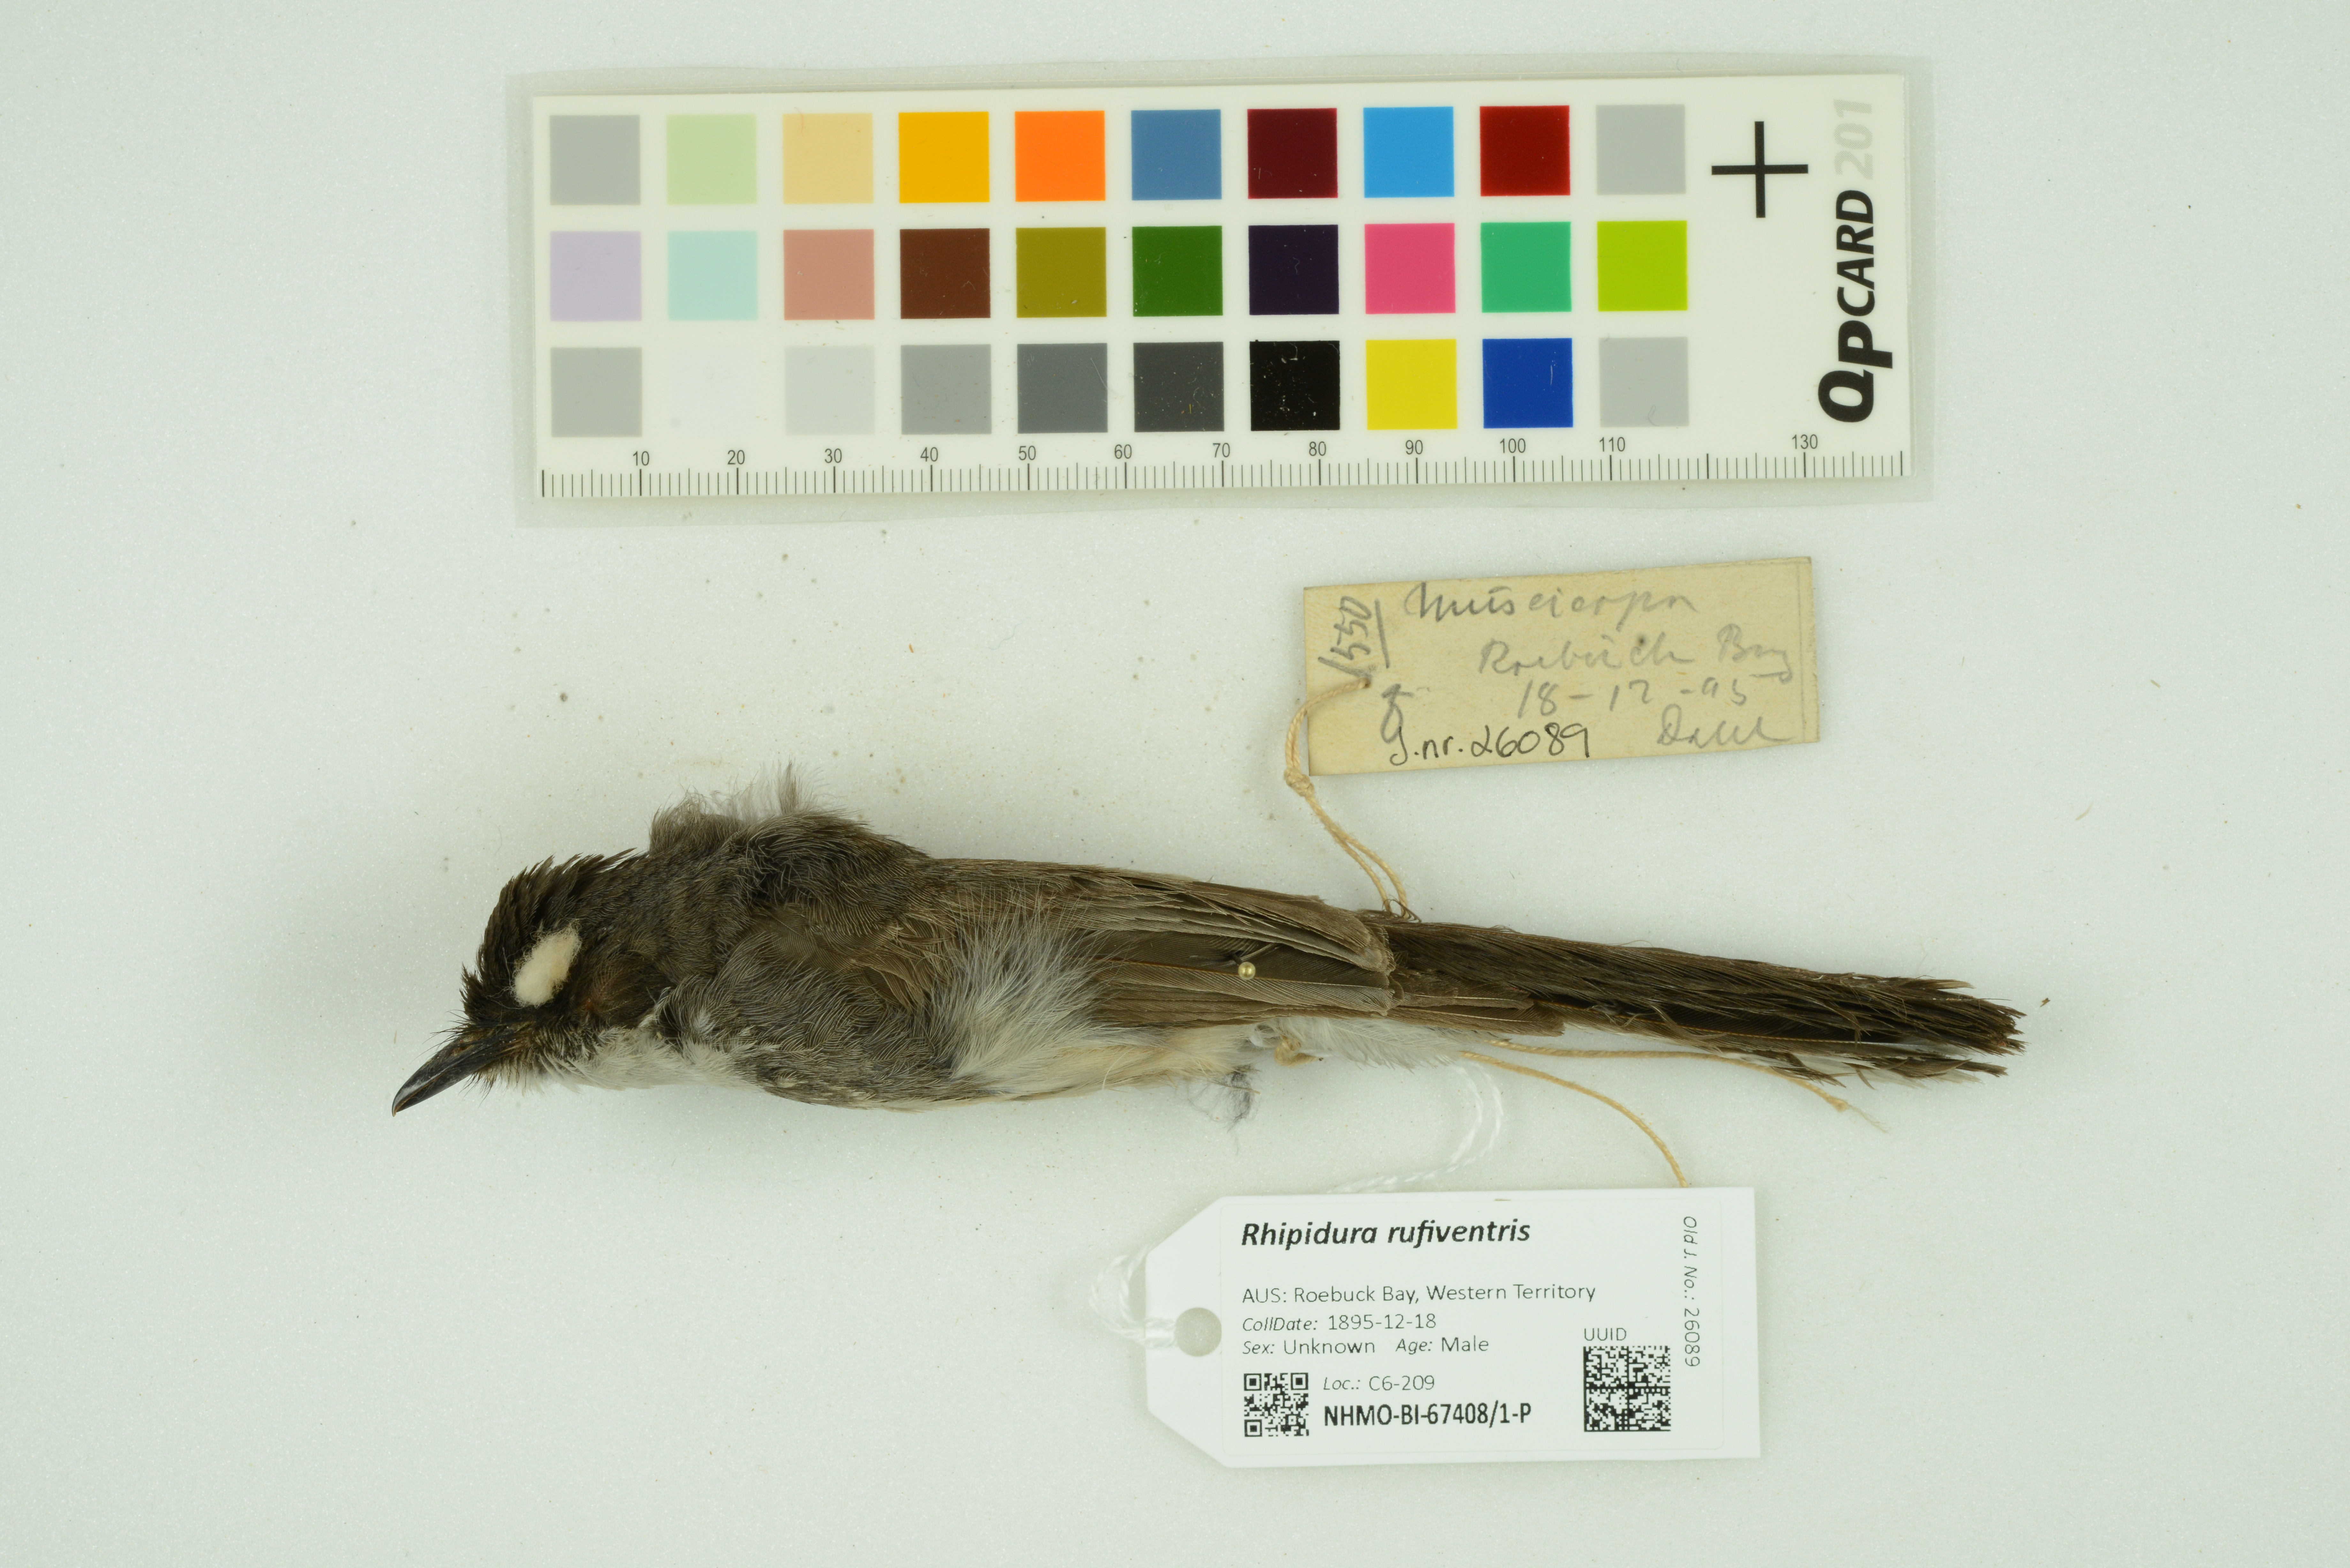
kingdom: Animalia
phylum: Chordata
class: Aves
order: Passeriformes
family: Rhipiduridae
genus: Rhipidura
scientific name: Rhipidura rufiventris
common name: Northern fantail
